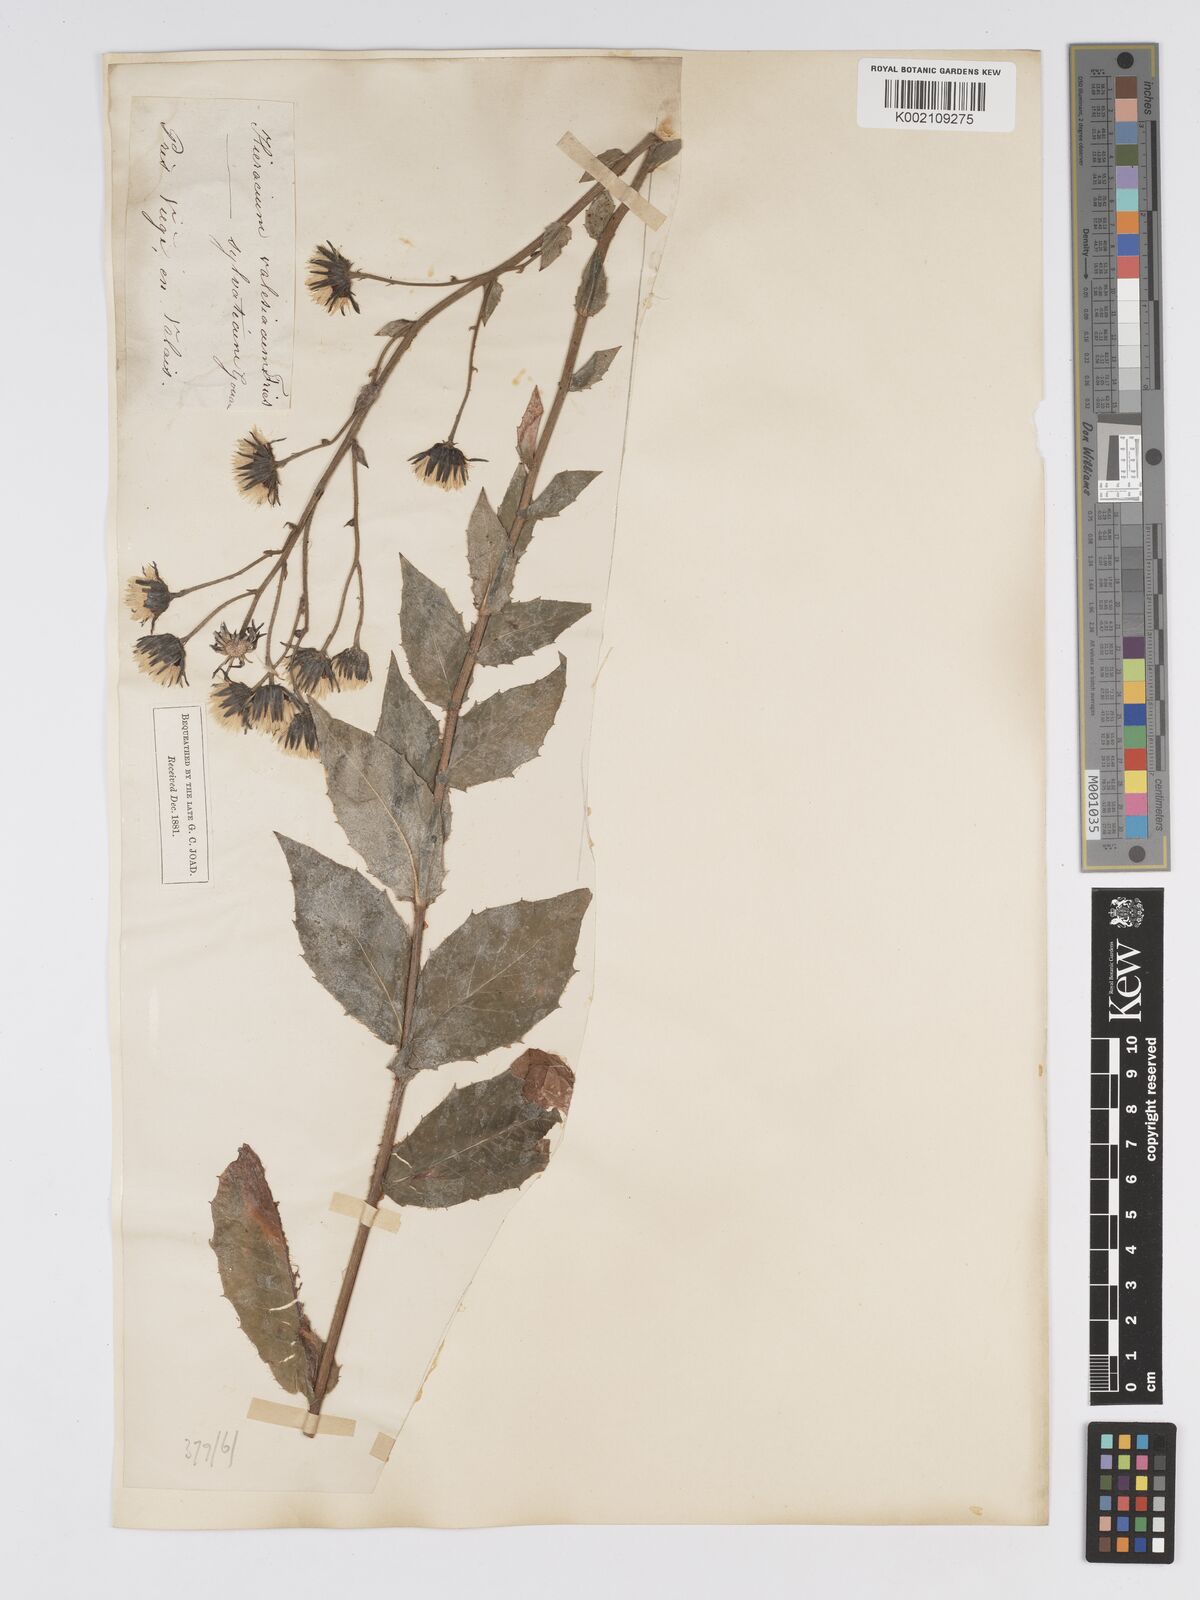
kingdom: Plantae
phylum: Tracheophyta
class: Magnoliopsida
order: Asterales
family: Asteraceae
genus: Hieracium
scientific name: Hieracium lycopifolium
